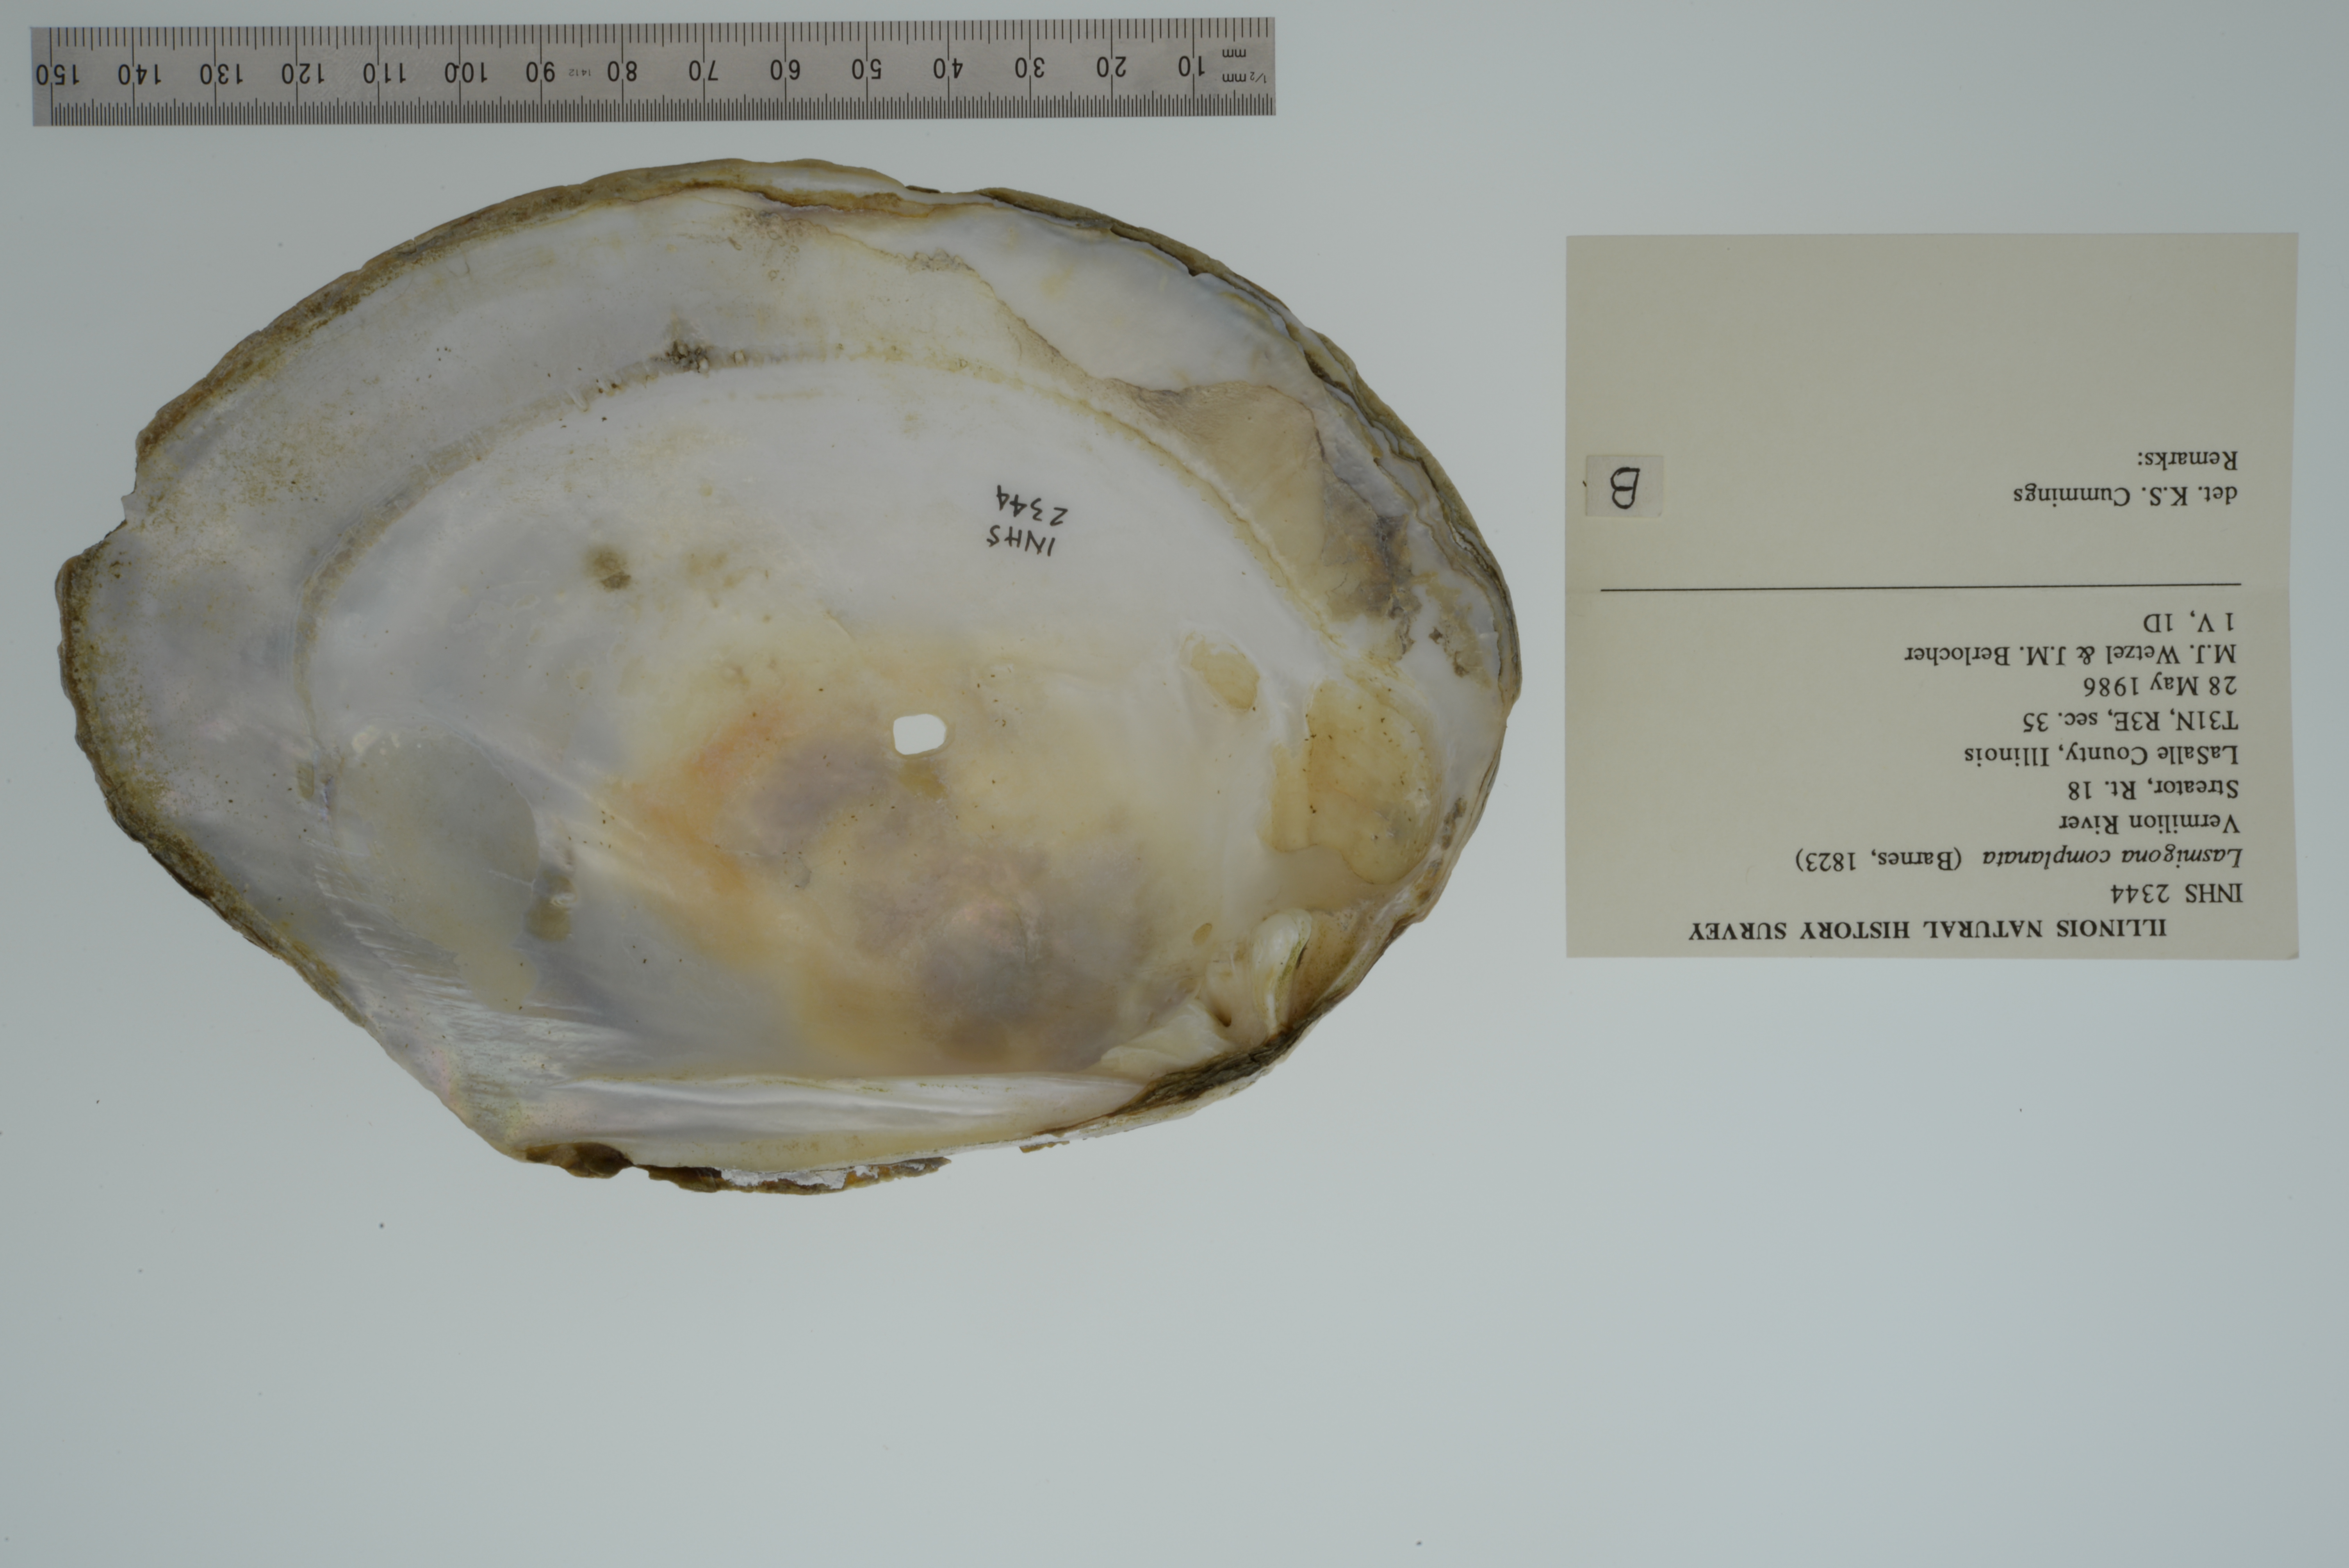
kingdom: Animalia
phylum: Mollusca
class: Bivalvia
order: Unionida
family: Unionidae
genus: Lasmigona
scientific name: Lasmigona complanata
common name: White heelsplitter
